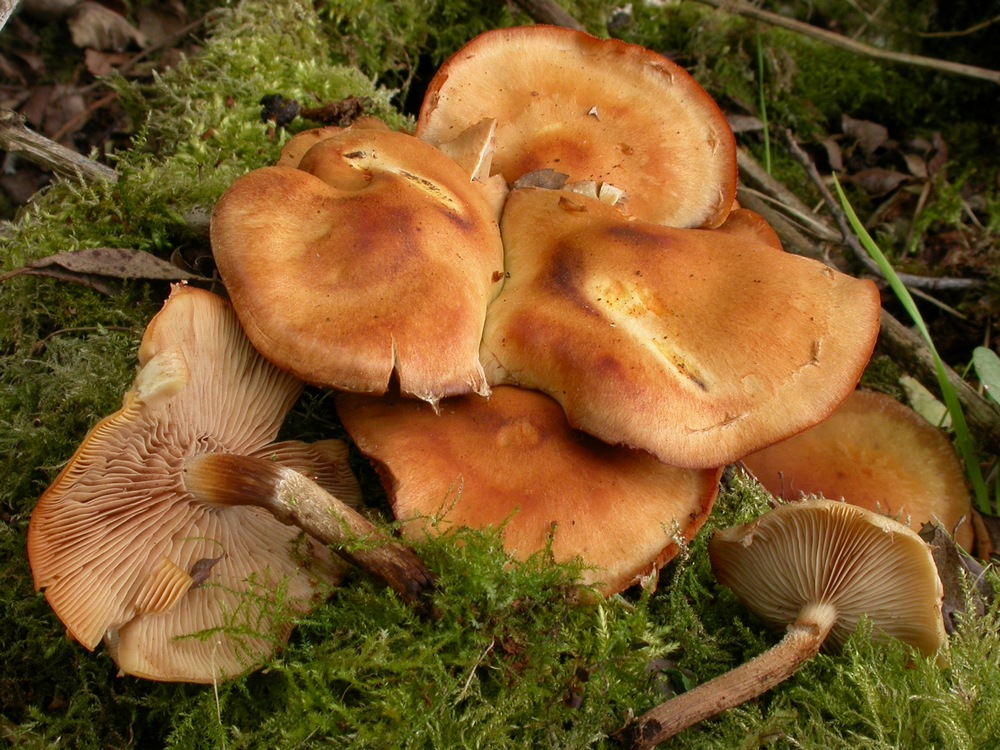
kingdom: Fungi
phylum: Basidiomycota
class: Agaricomycetes
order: Agaricales
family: Strophariaceae
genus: Kuehneromyces
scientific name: Kuehneromyces mutabilis
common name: foranderlig skælhat
